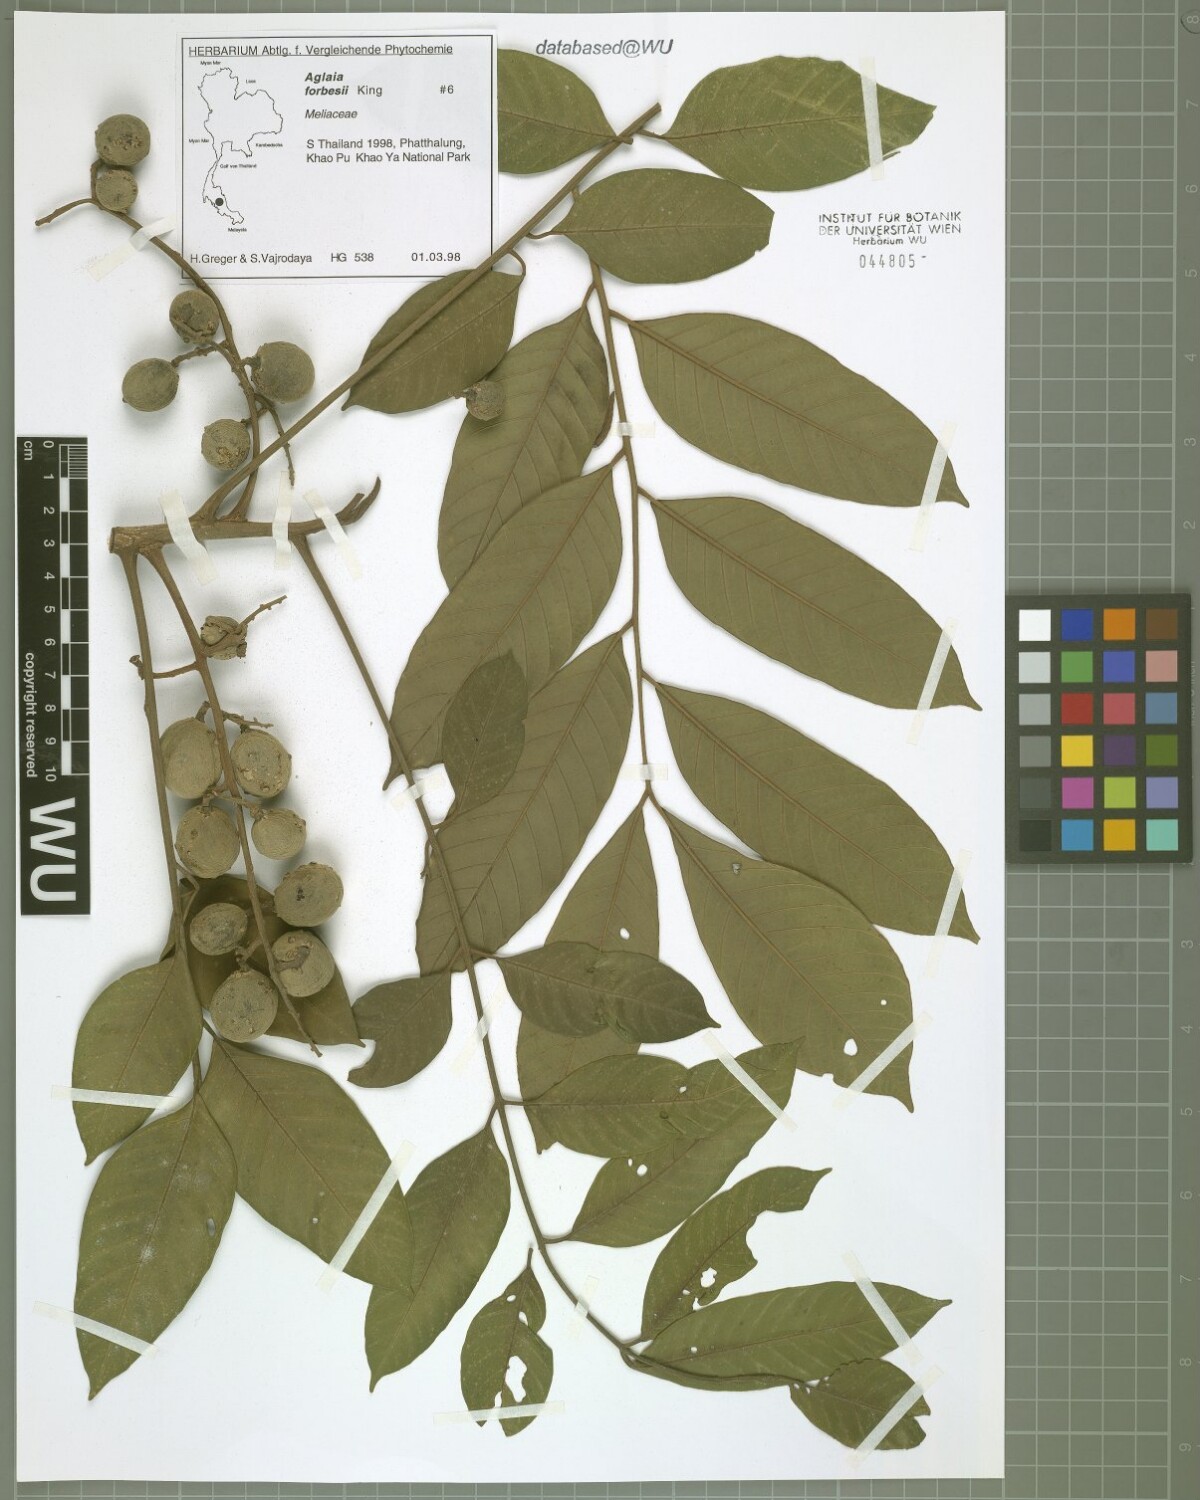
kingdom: Plantae
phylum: Tracheophyta
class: Magnoliopsida
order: Sapindales
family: Meliaceae
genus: Aglaia
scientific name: Aglaia forbesii
